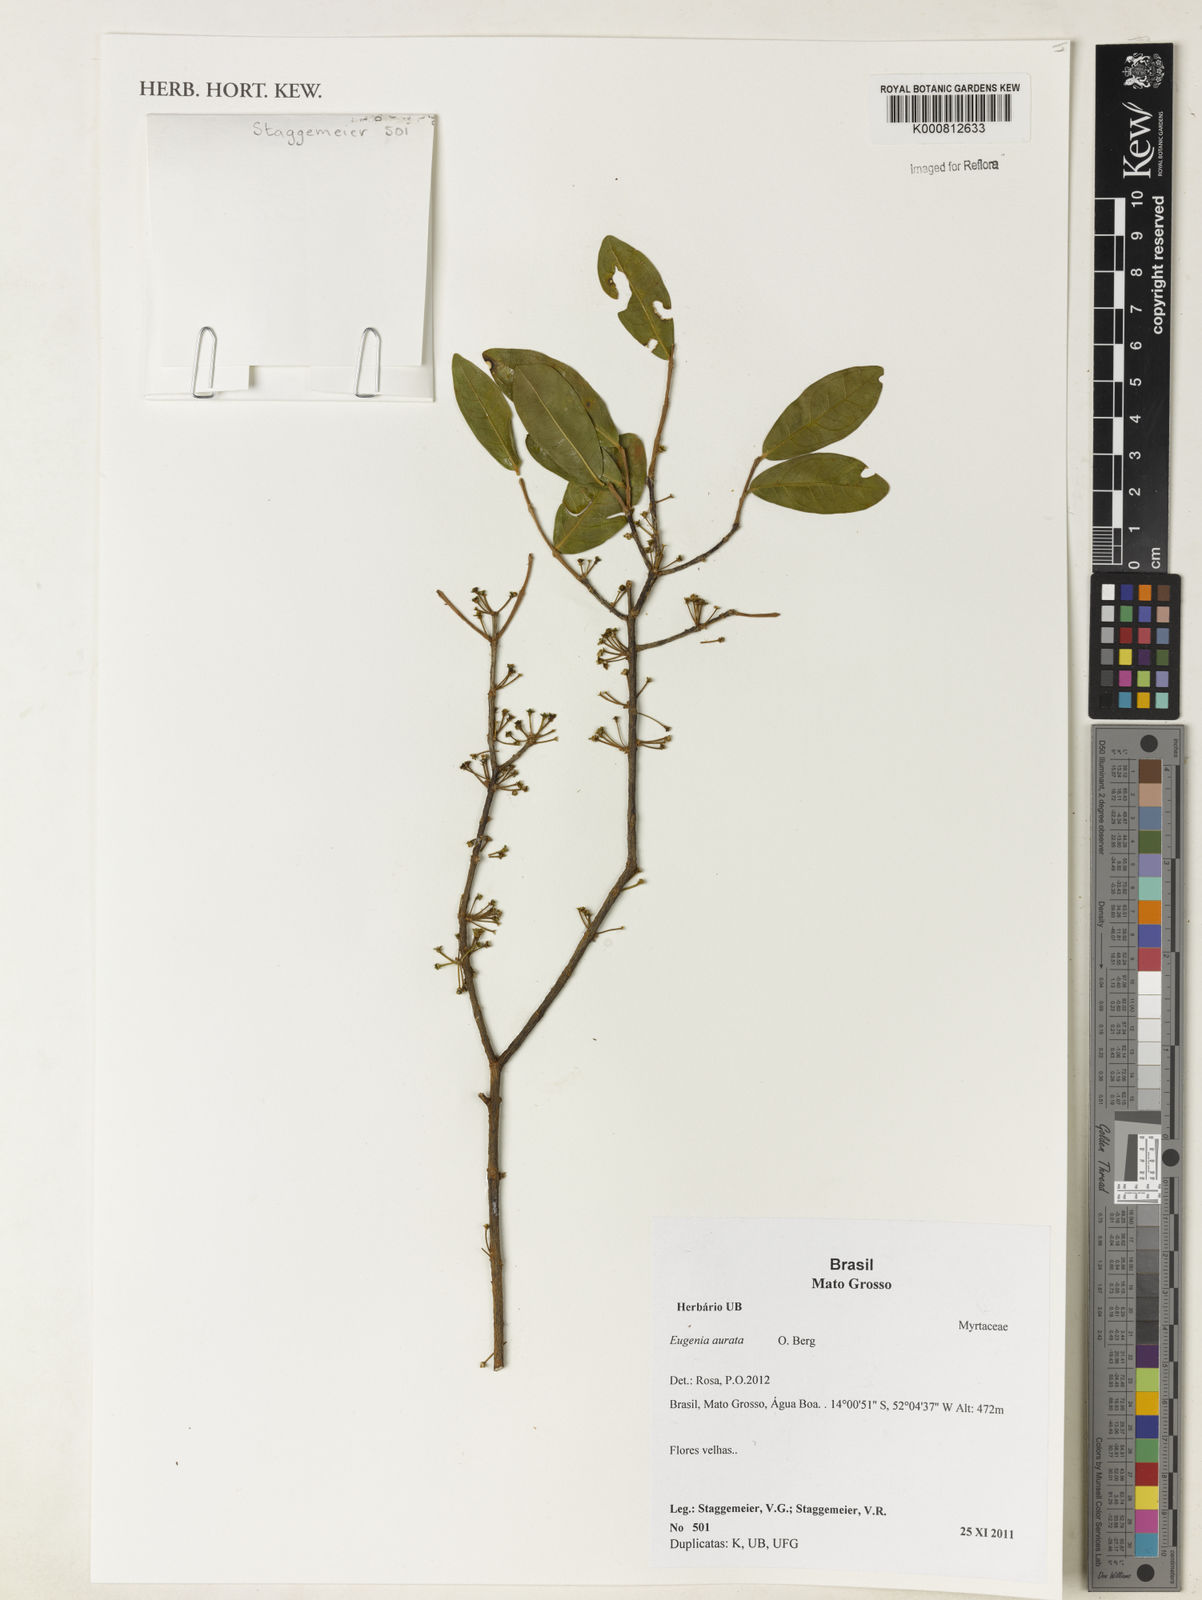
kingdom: Plantae
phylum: Tracheophyta
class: Magnoliopsida
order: Myrtales
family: Myrtaceae
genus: Eugenia
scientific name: Eugenia aurata
